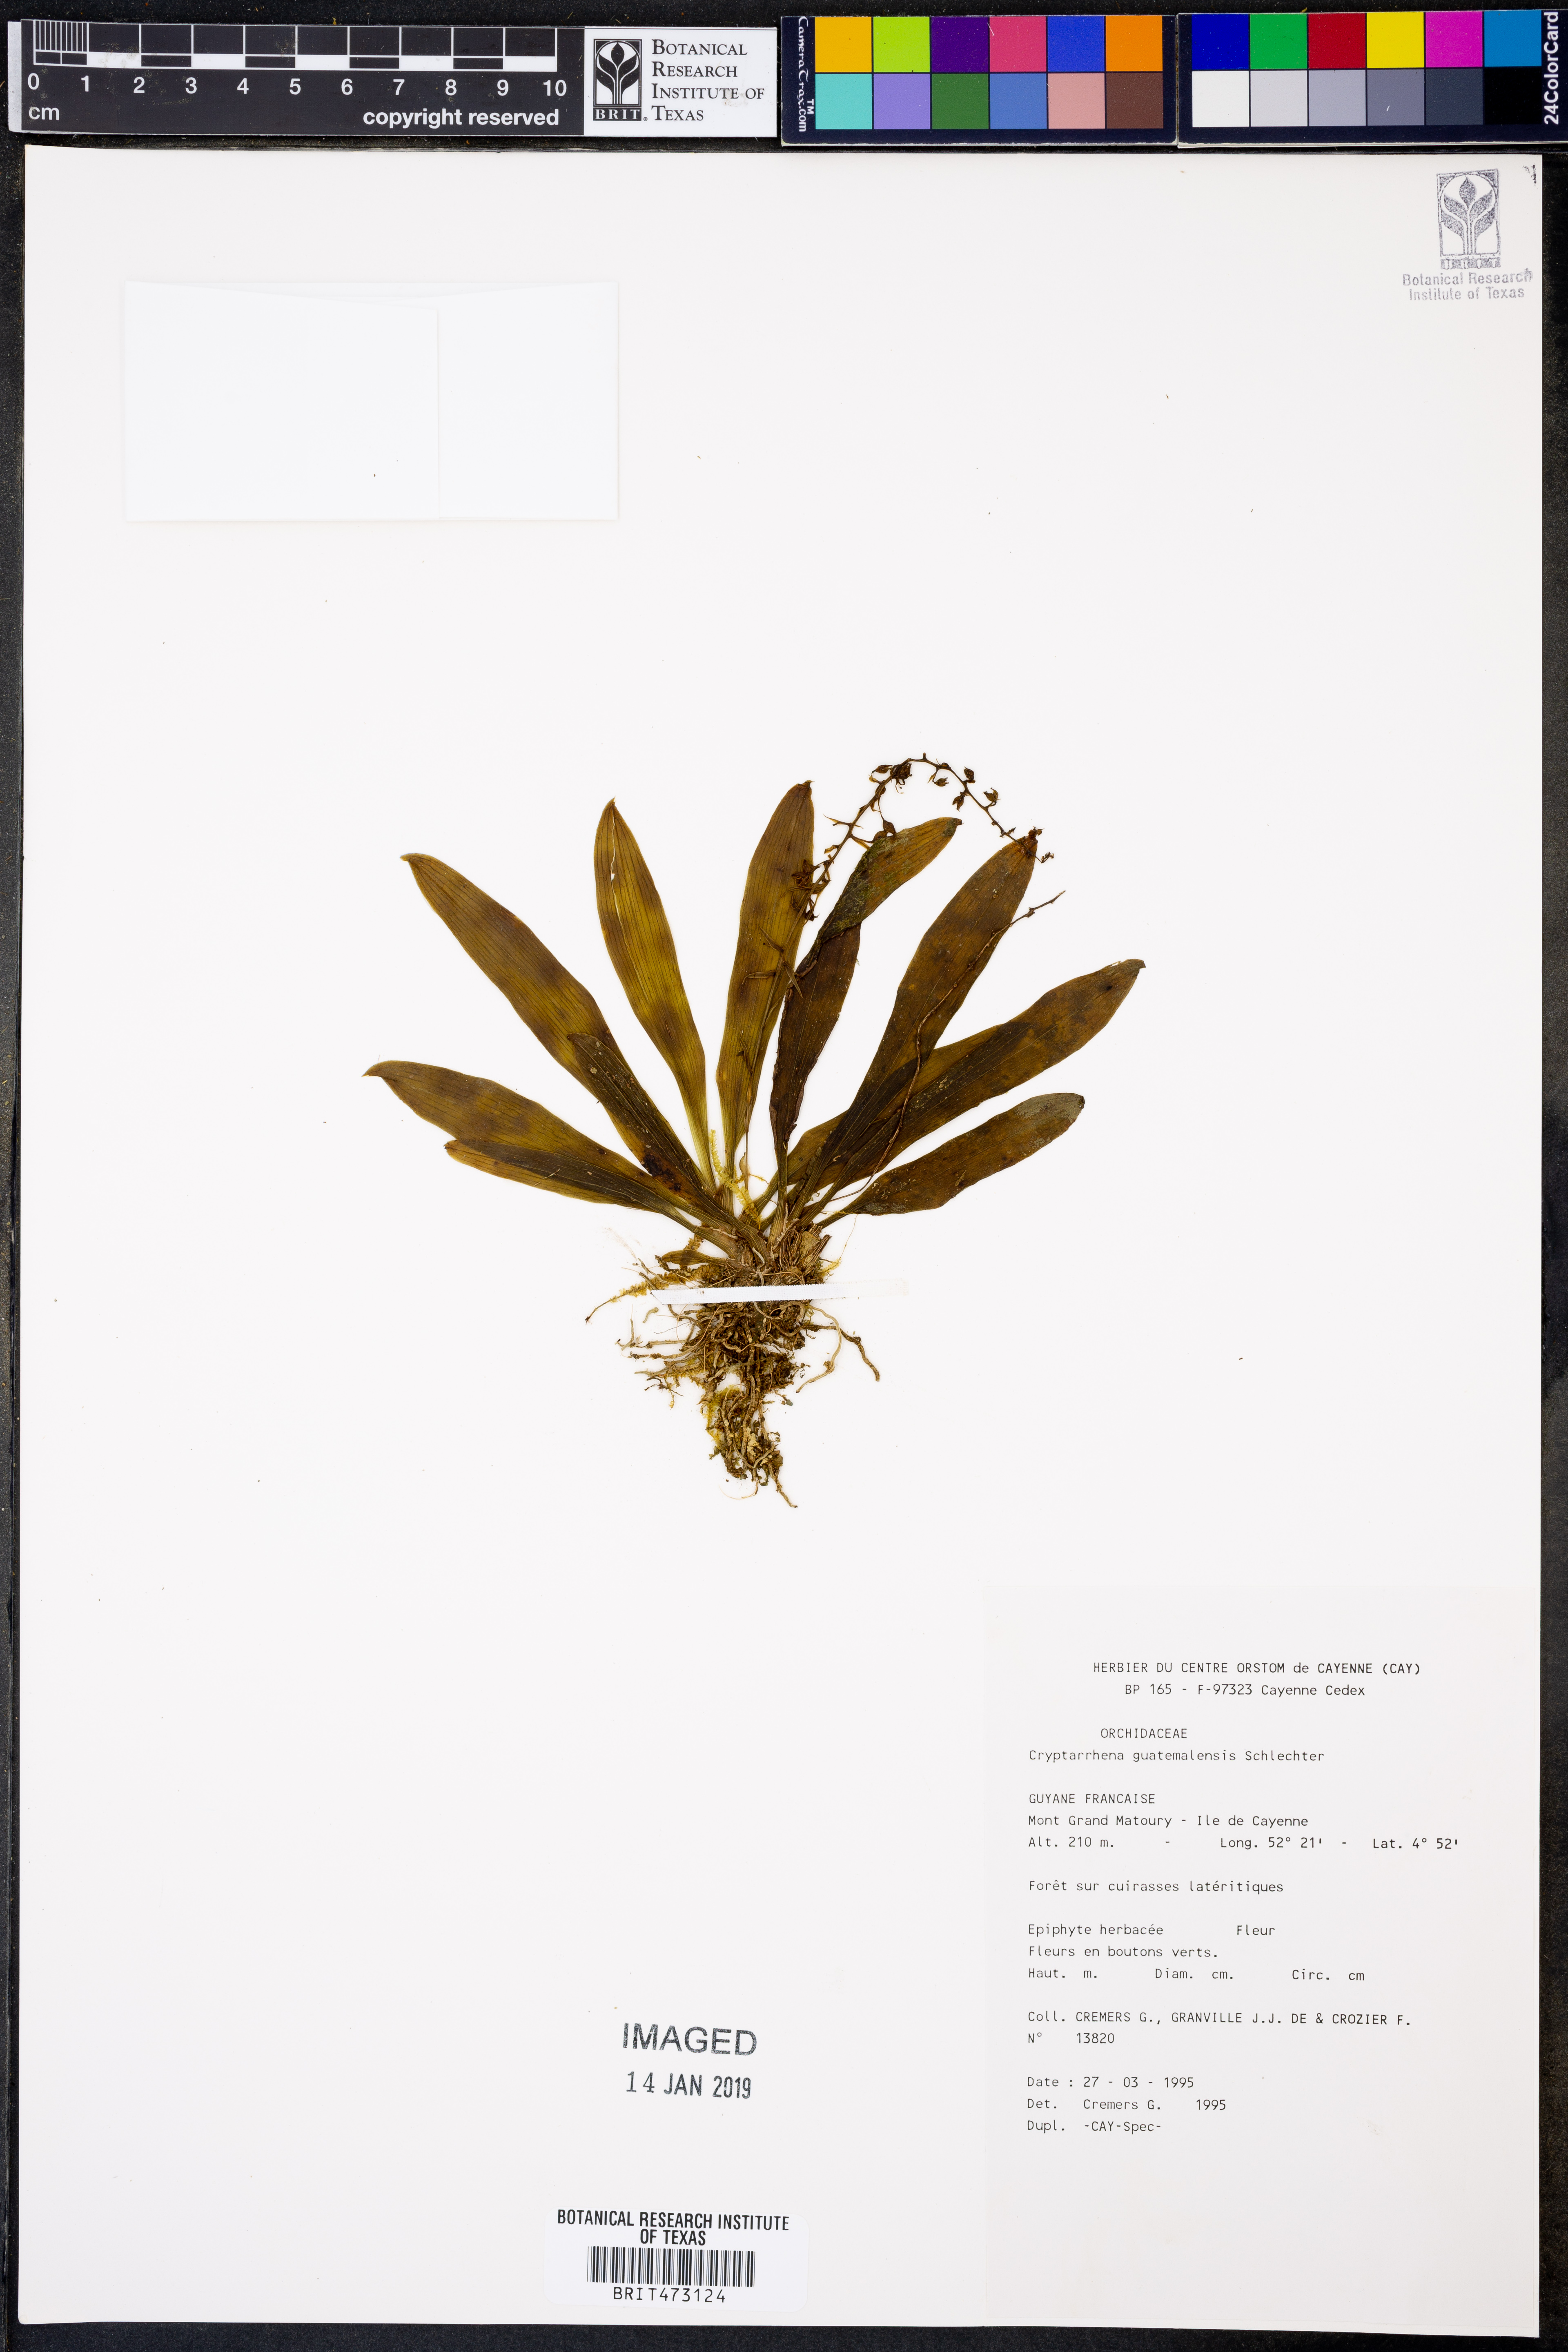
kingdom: Plantae
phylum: Tracheophyta
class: Liliopsida
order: Asparagales
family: Orchidaceae
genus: Cryptarrhena
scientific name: Cryptarrhena guatemalensis
